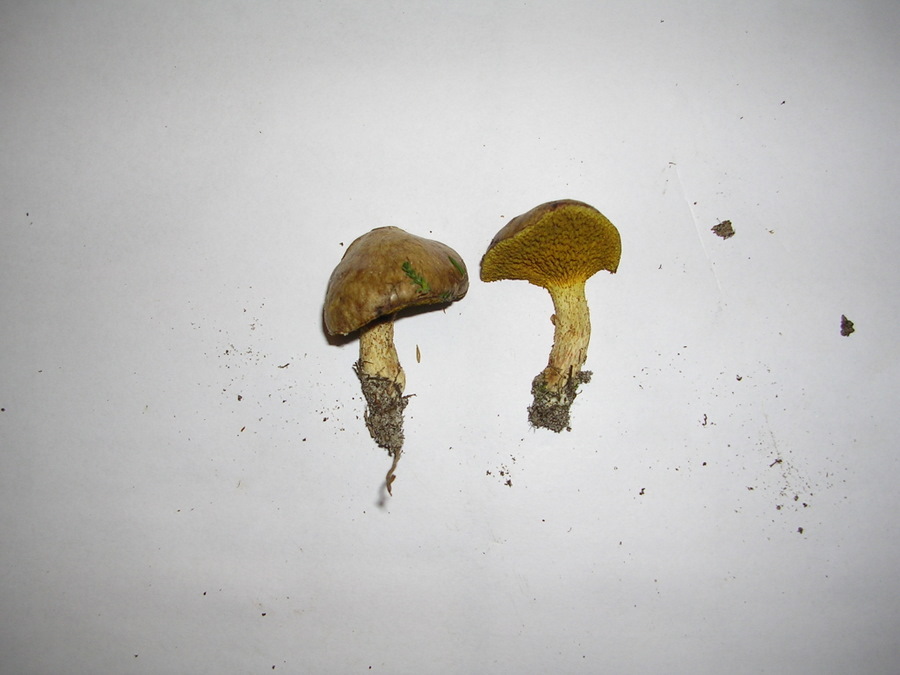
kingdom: Fungi
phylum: Basidiomycota
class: Agaricomycetes
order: Boletales
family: Suillaceae
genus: Suillus
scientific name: Suillus flavidus
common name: mose-slimrørhat
